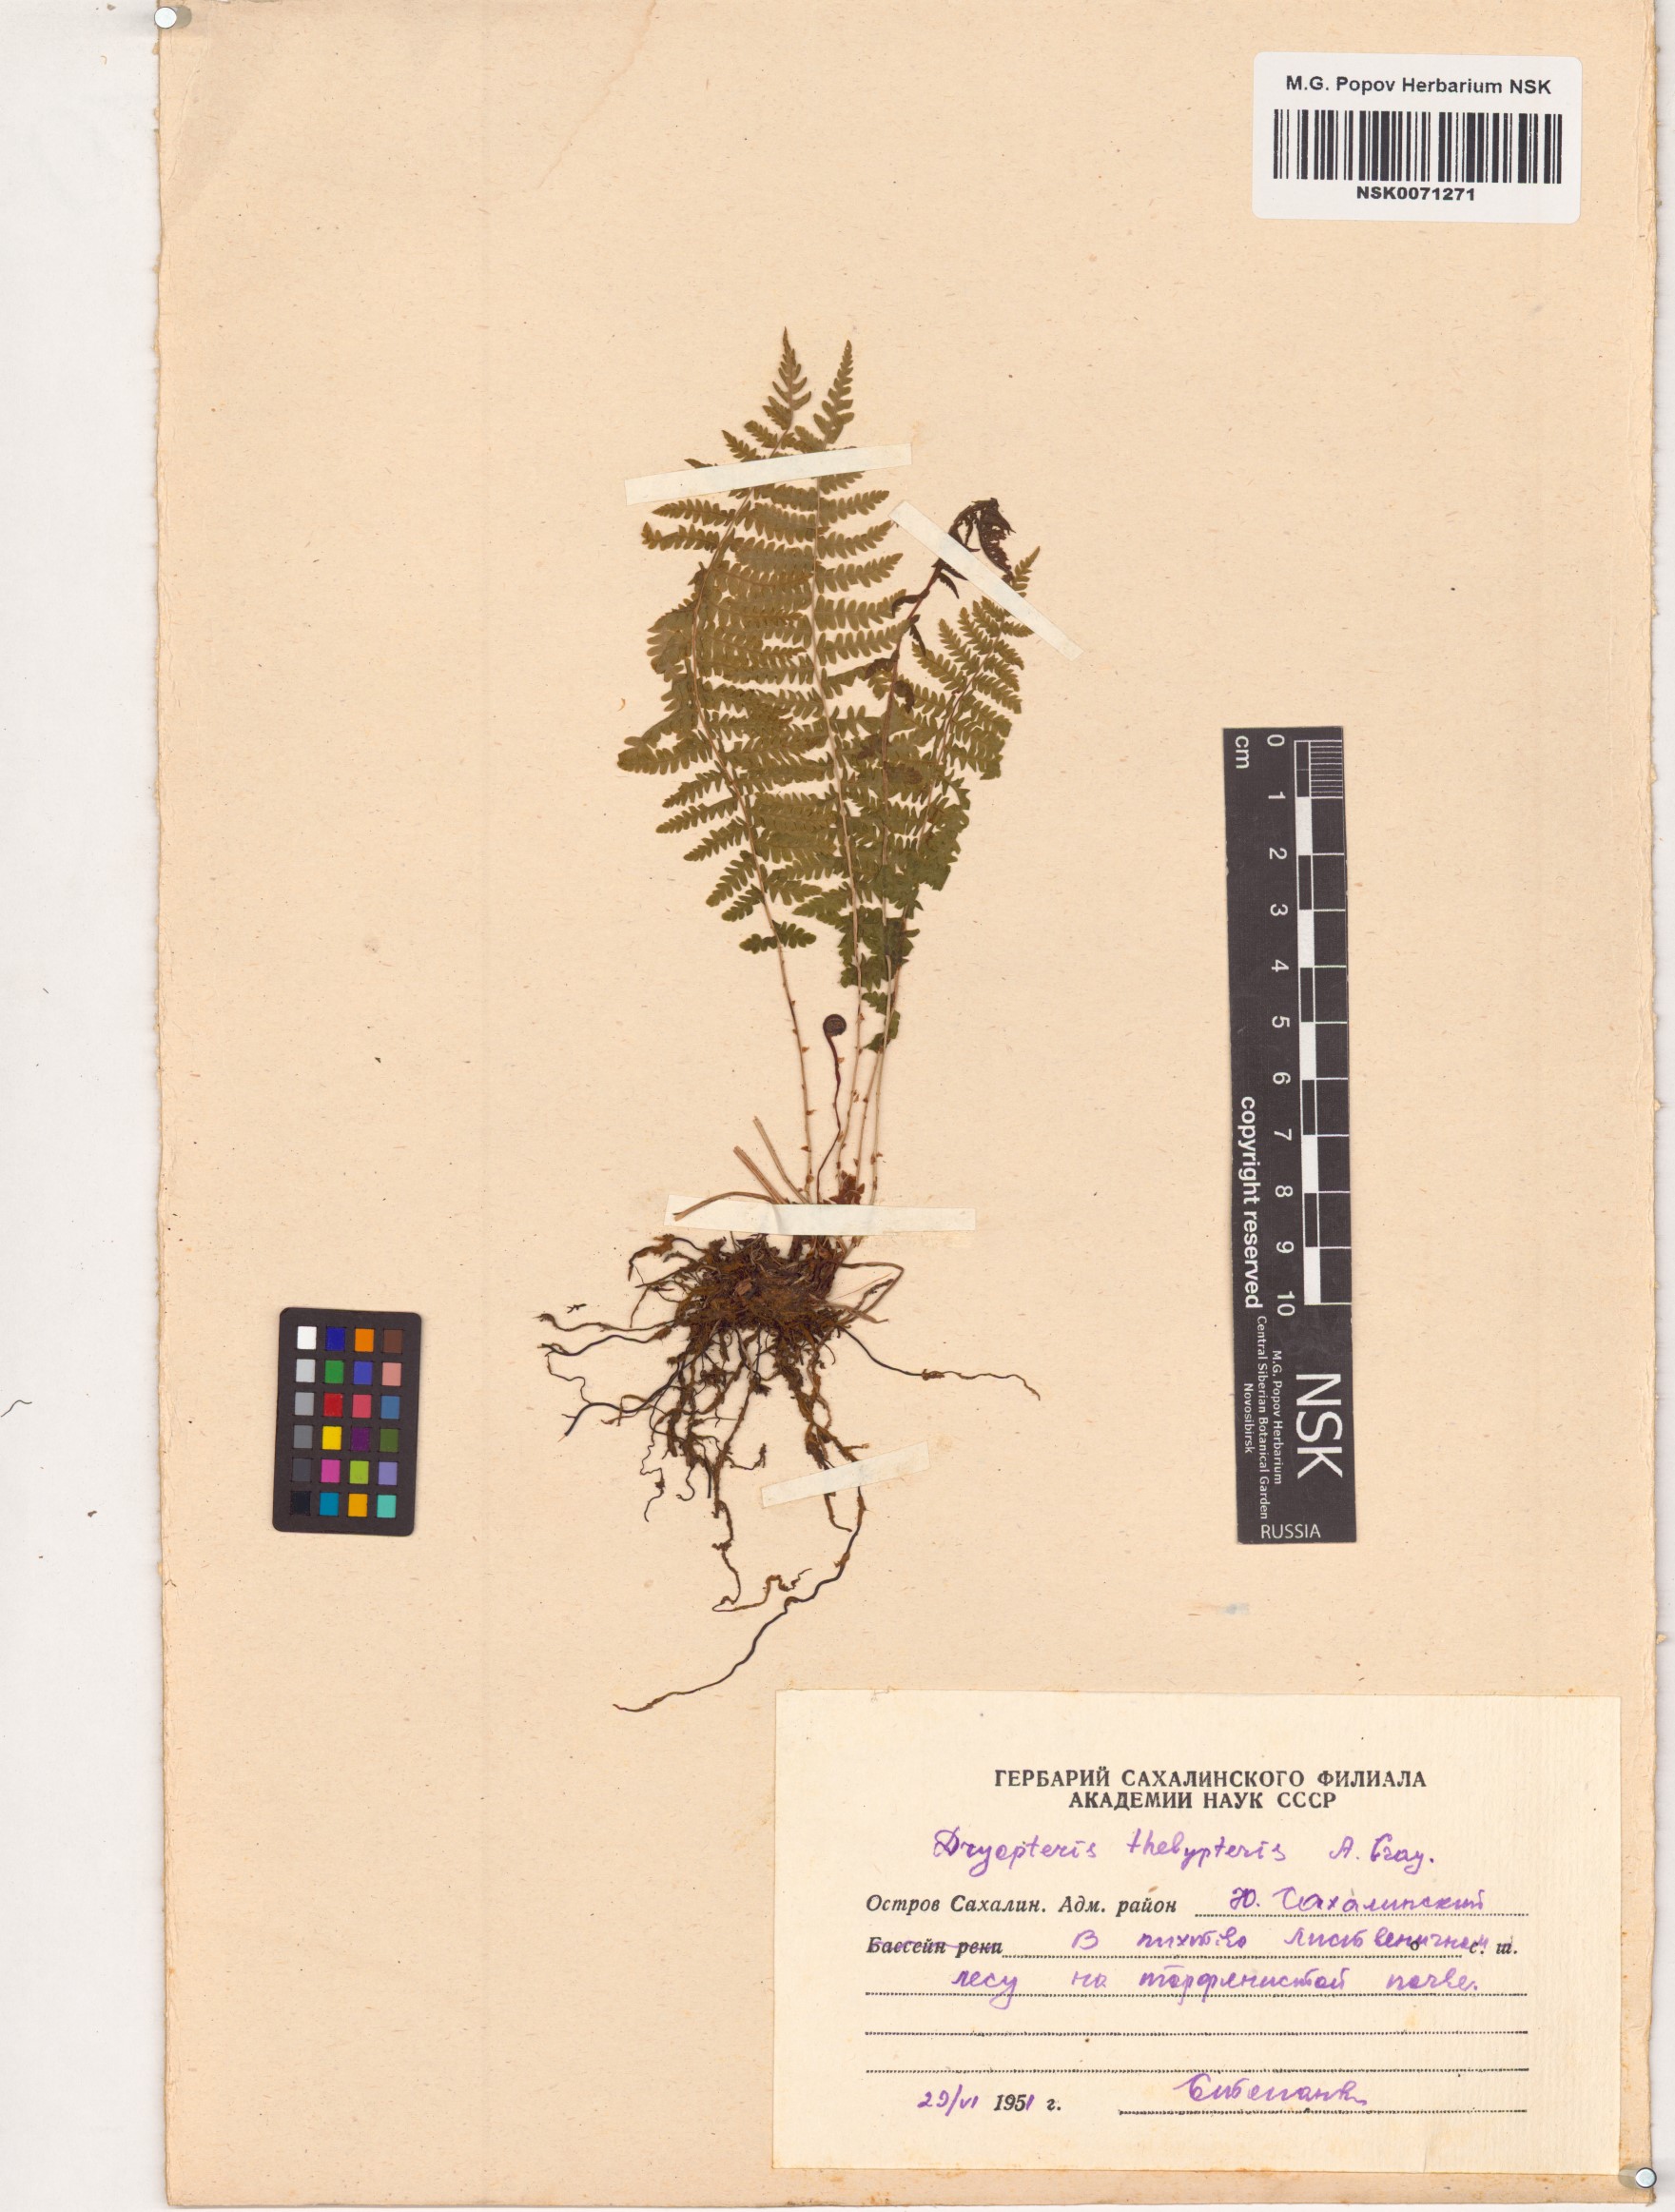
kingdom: Plantae
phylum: Tracheophyta
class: Polypodiopsida
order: Polypodiales
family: Thelypteridaceae
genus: Thelypteris
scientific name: Thelypteris palustris
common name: Marsh fern
